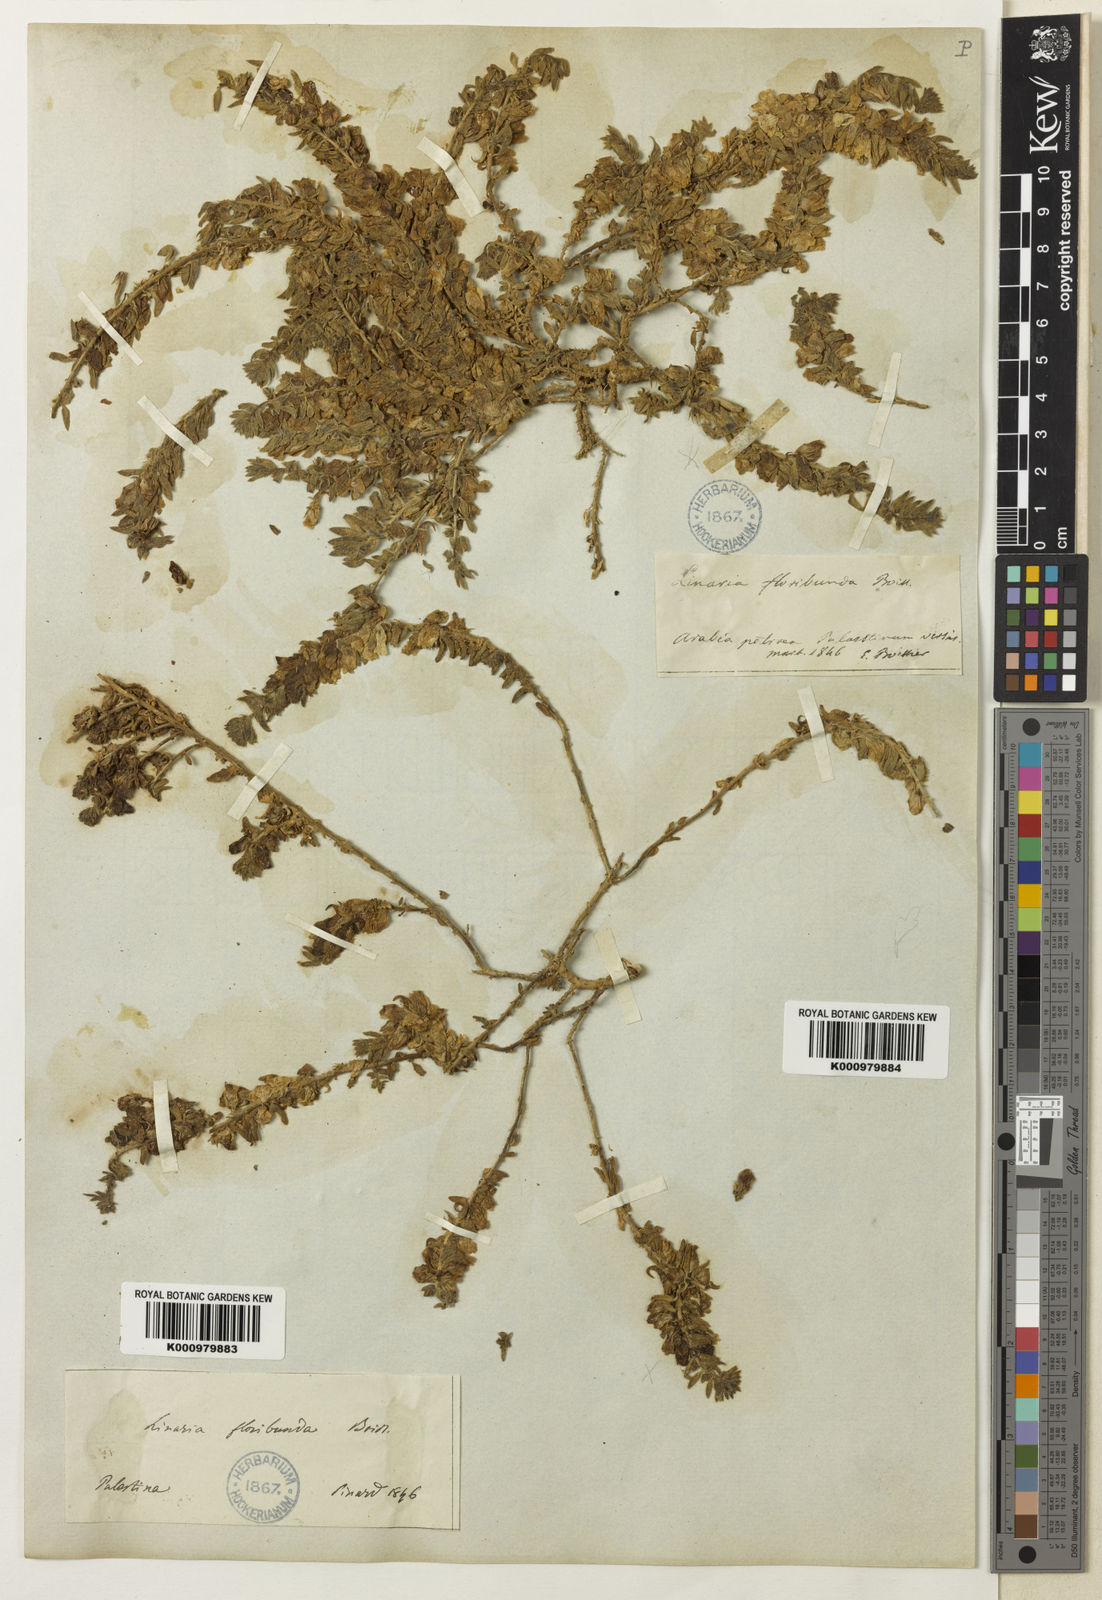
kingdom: Plantae
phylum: Tracheophyta
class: Magnoliopsida
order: Lamiales
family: Plantaginaceae
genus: Kickxia
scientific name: Kickxia
